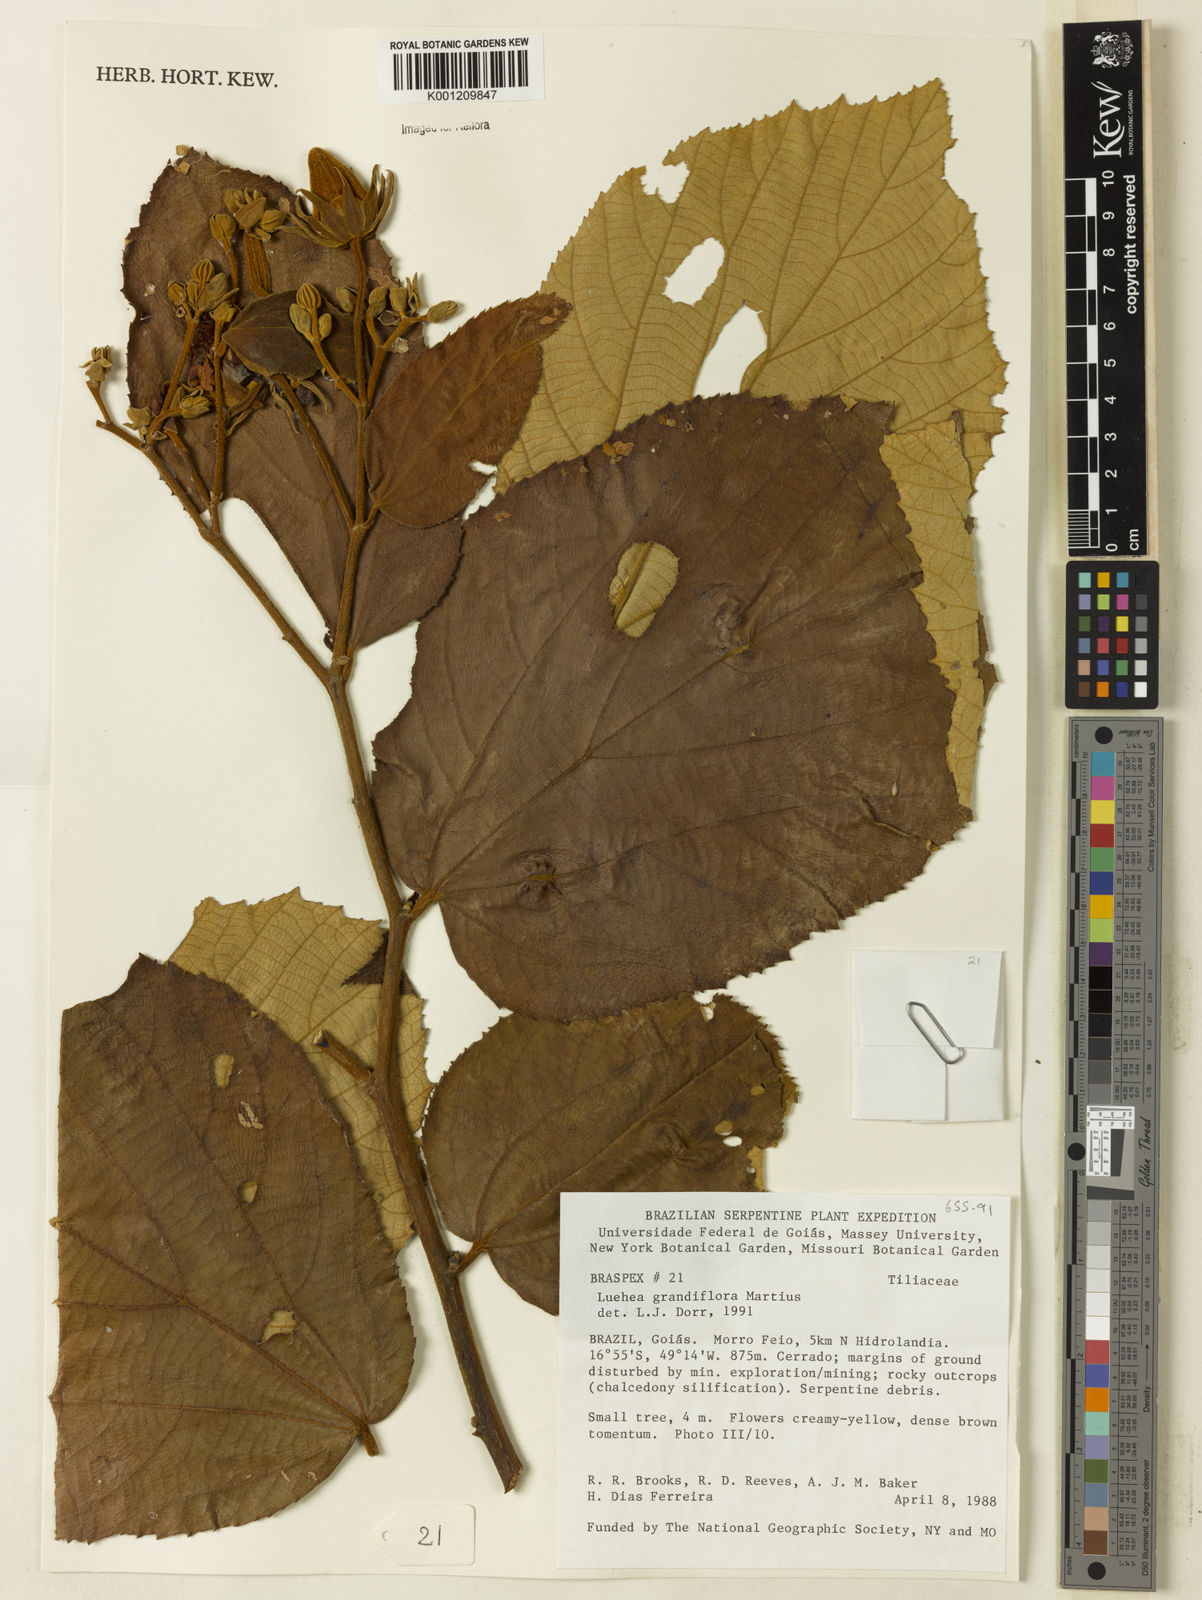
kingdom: Plantae
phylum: Tracheophyta
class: Magnoliopsida
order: Malvales
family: Malvaceae
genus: Luehea
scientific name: Luehea grandiflora
